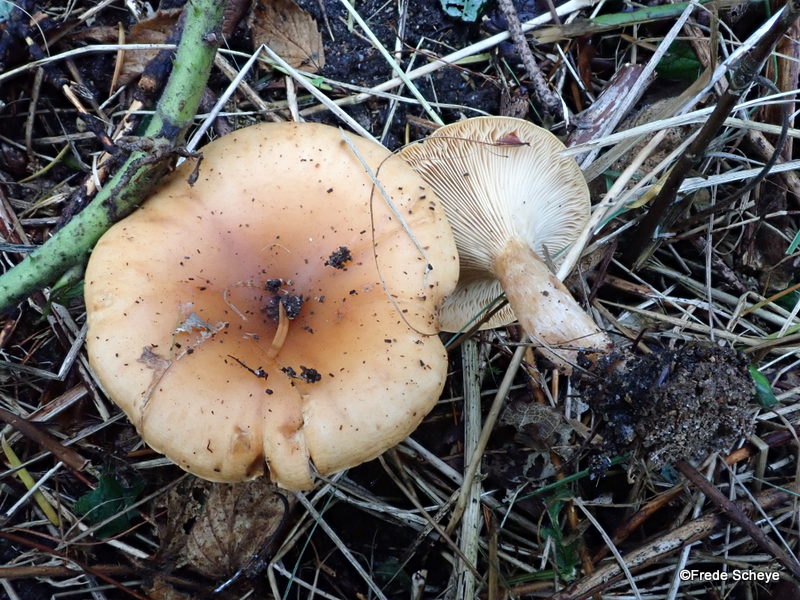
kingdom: Fungi
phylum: Basidiomycota
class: Agaricomycetes
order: Agaricales
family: Tricholomataceae
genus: Paralepista
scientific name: Paralepista flaccida
